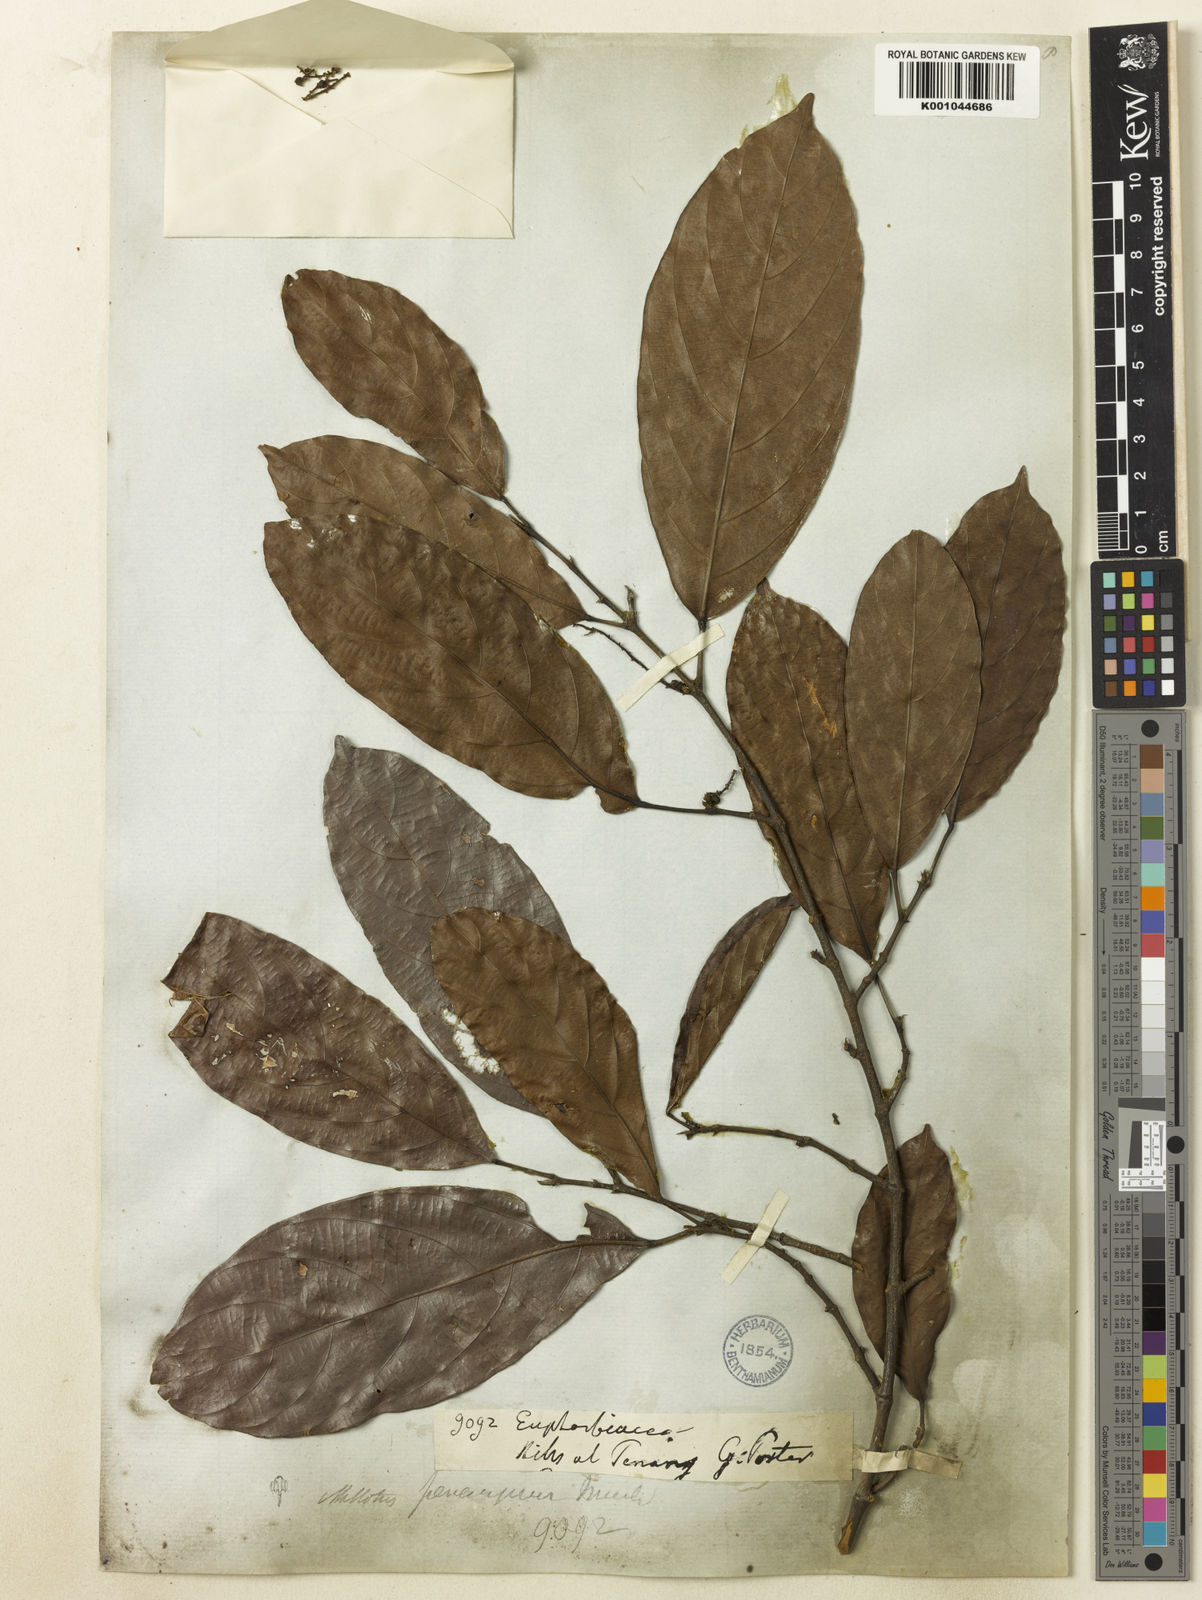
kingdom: Plantae
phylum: Tracheophyta
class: Magnoliopsida
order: Malpighiales
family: Euphorbiaceae
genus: Hancea
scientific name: Hancea penangensis
